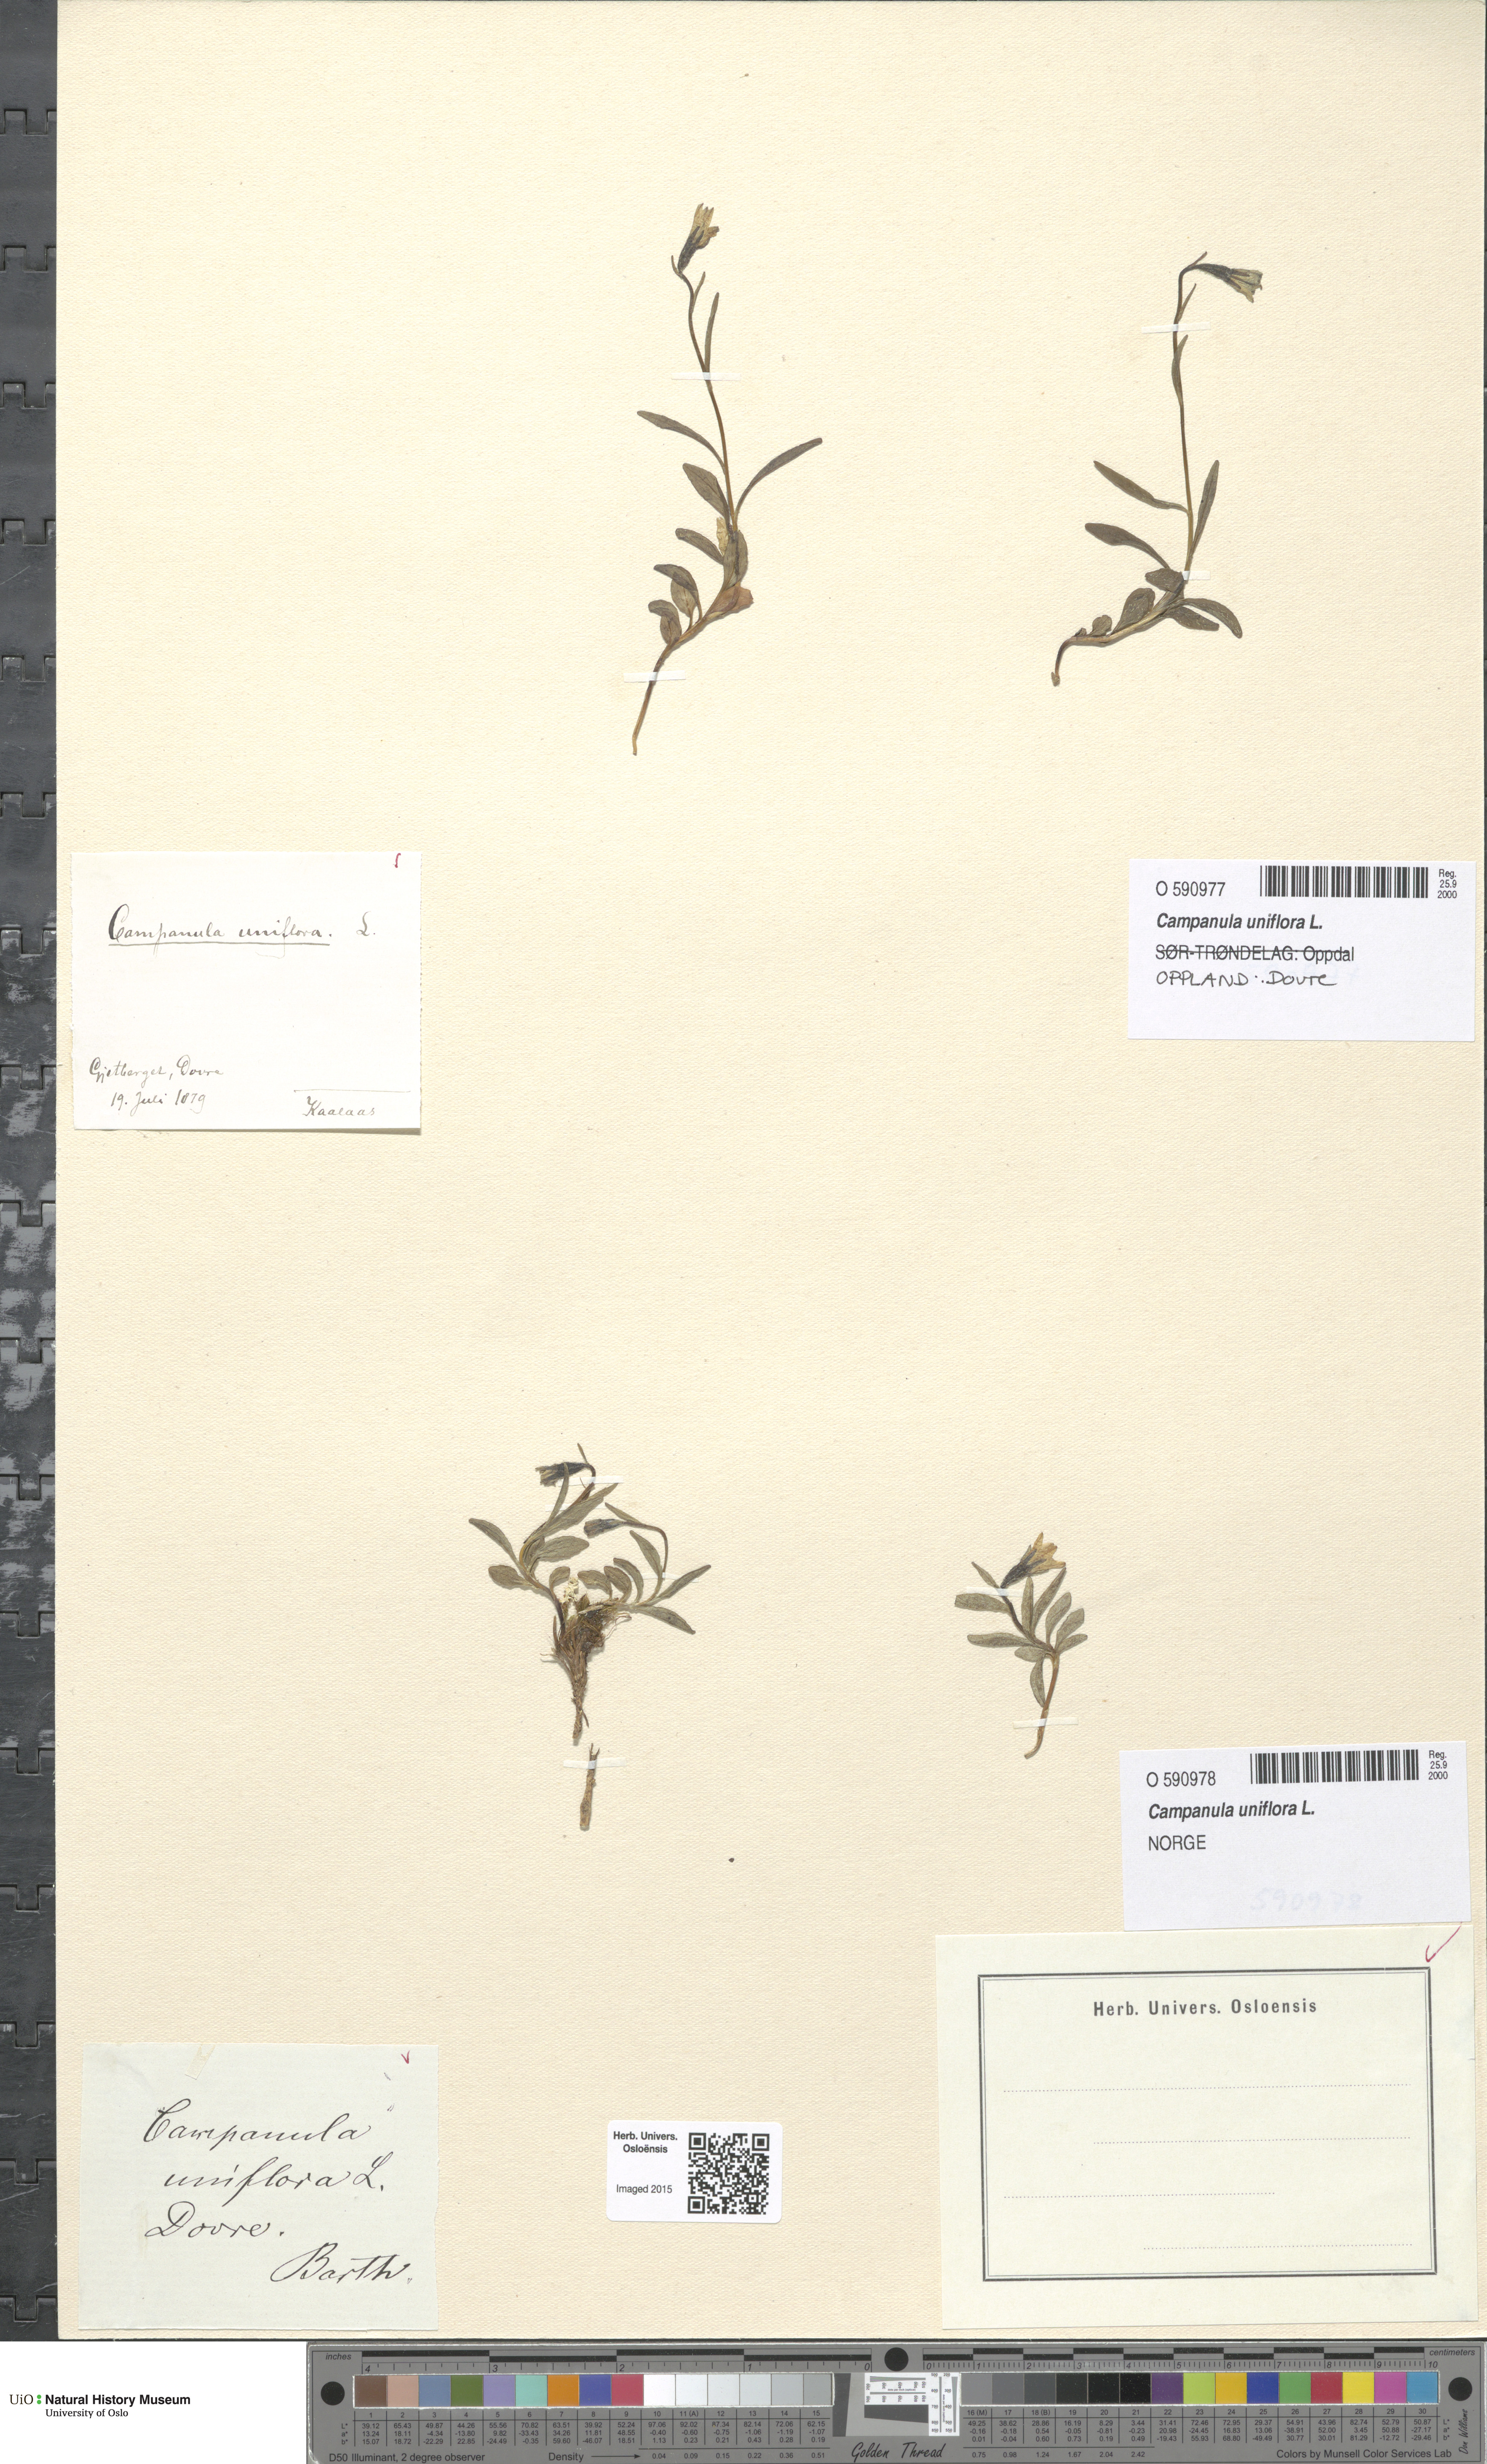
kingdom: Plantae
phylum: Tracheophyta
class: Magnoliopsida
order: Asterales
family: Campanulaceae
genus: Melanocalyx
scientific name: Melanocalyx uniflora
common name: Alpine harebell
